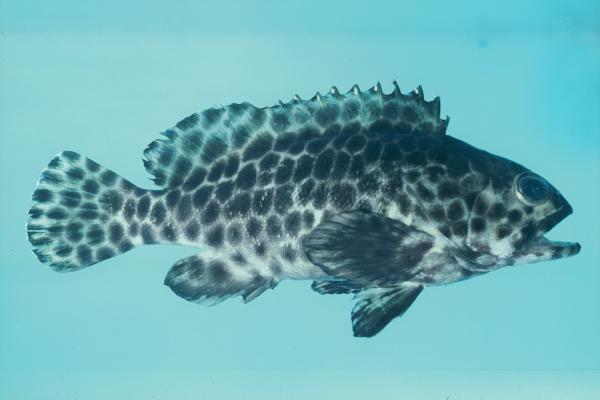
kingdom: Animalia
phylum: Chordata
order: Perciformes
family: Serranidae
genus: Epinephelus
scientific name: Epinephelus quoyanus
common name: Longfin grouper
